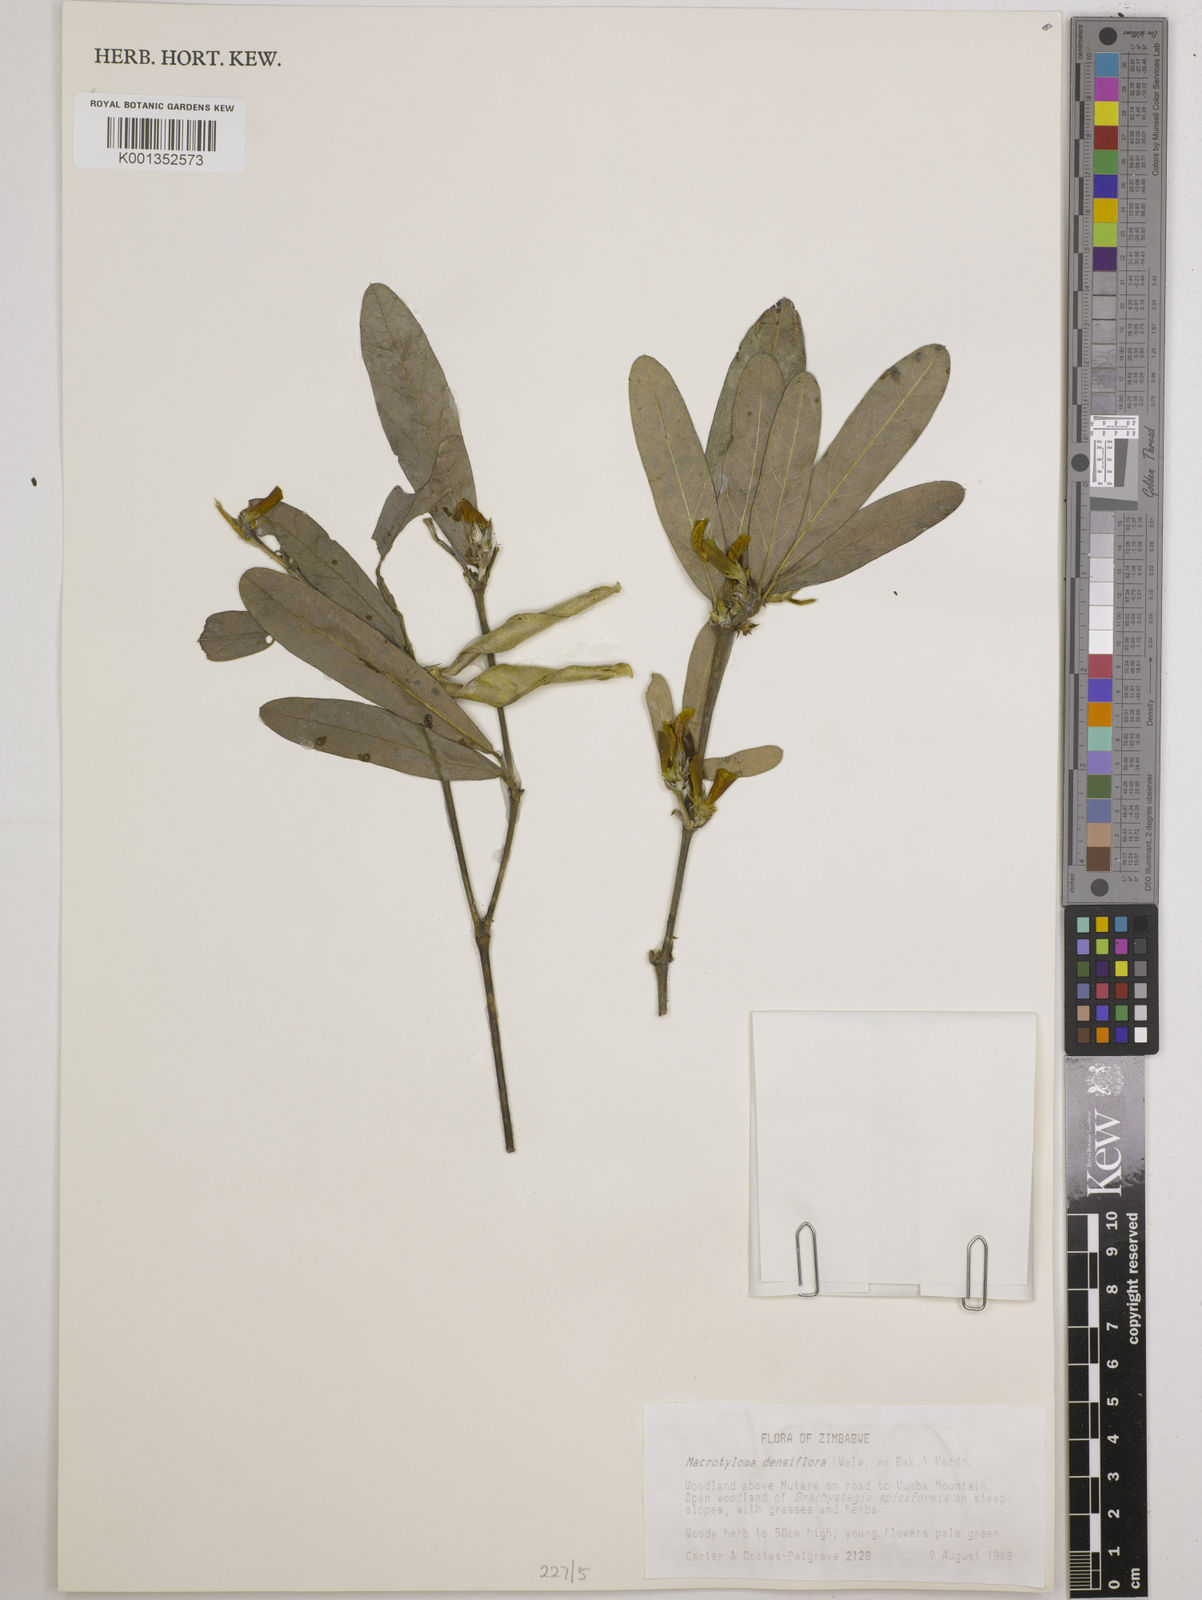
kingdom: Plantae
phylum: Tracheophyta
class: Magnoliopsida
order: Fabales
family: Fabaceae
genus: Macrotyloma
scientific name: Macrotyloma densiflorum
